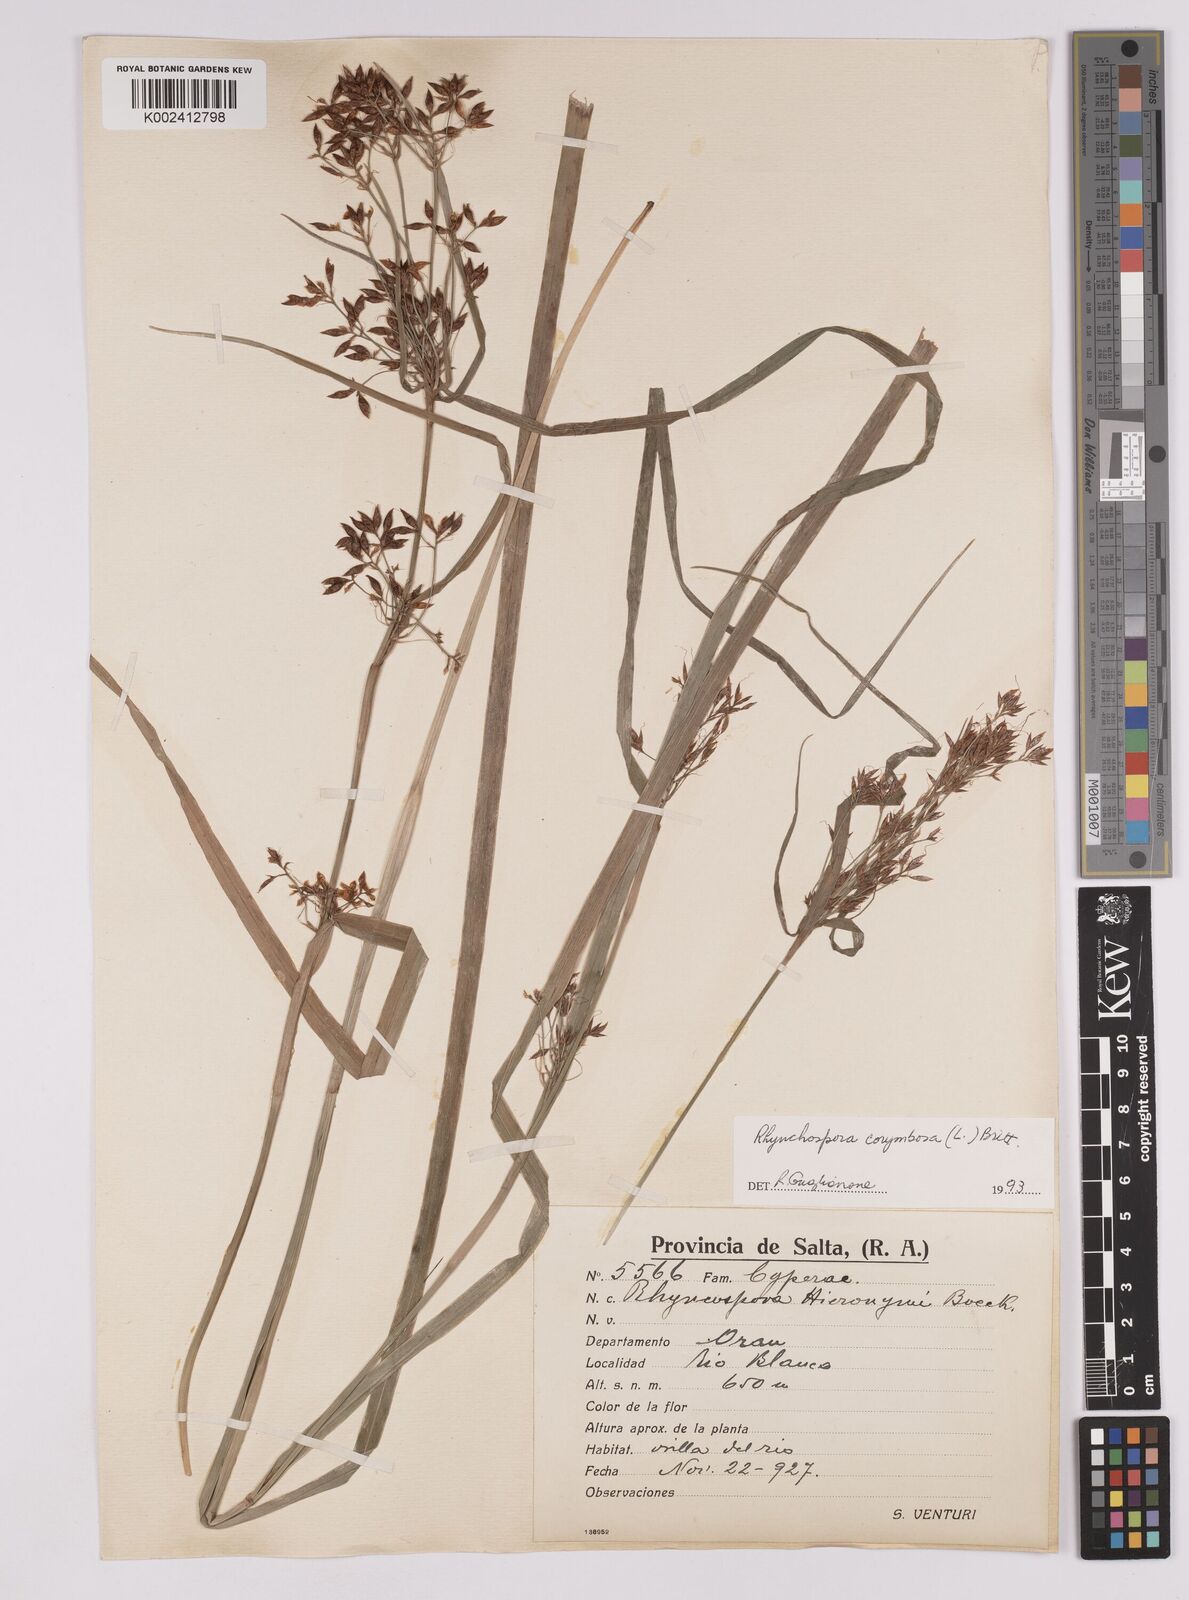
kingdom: Plantae
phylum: Tracheophyta
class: Liliopsida
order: Poales
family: Cyperaceae
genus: Rhynchospora
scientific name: Rhynchospora corymbosa
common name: Golden beak sedge
